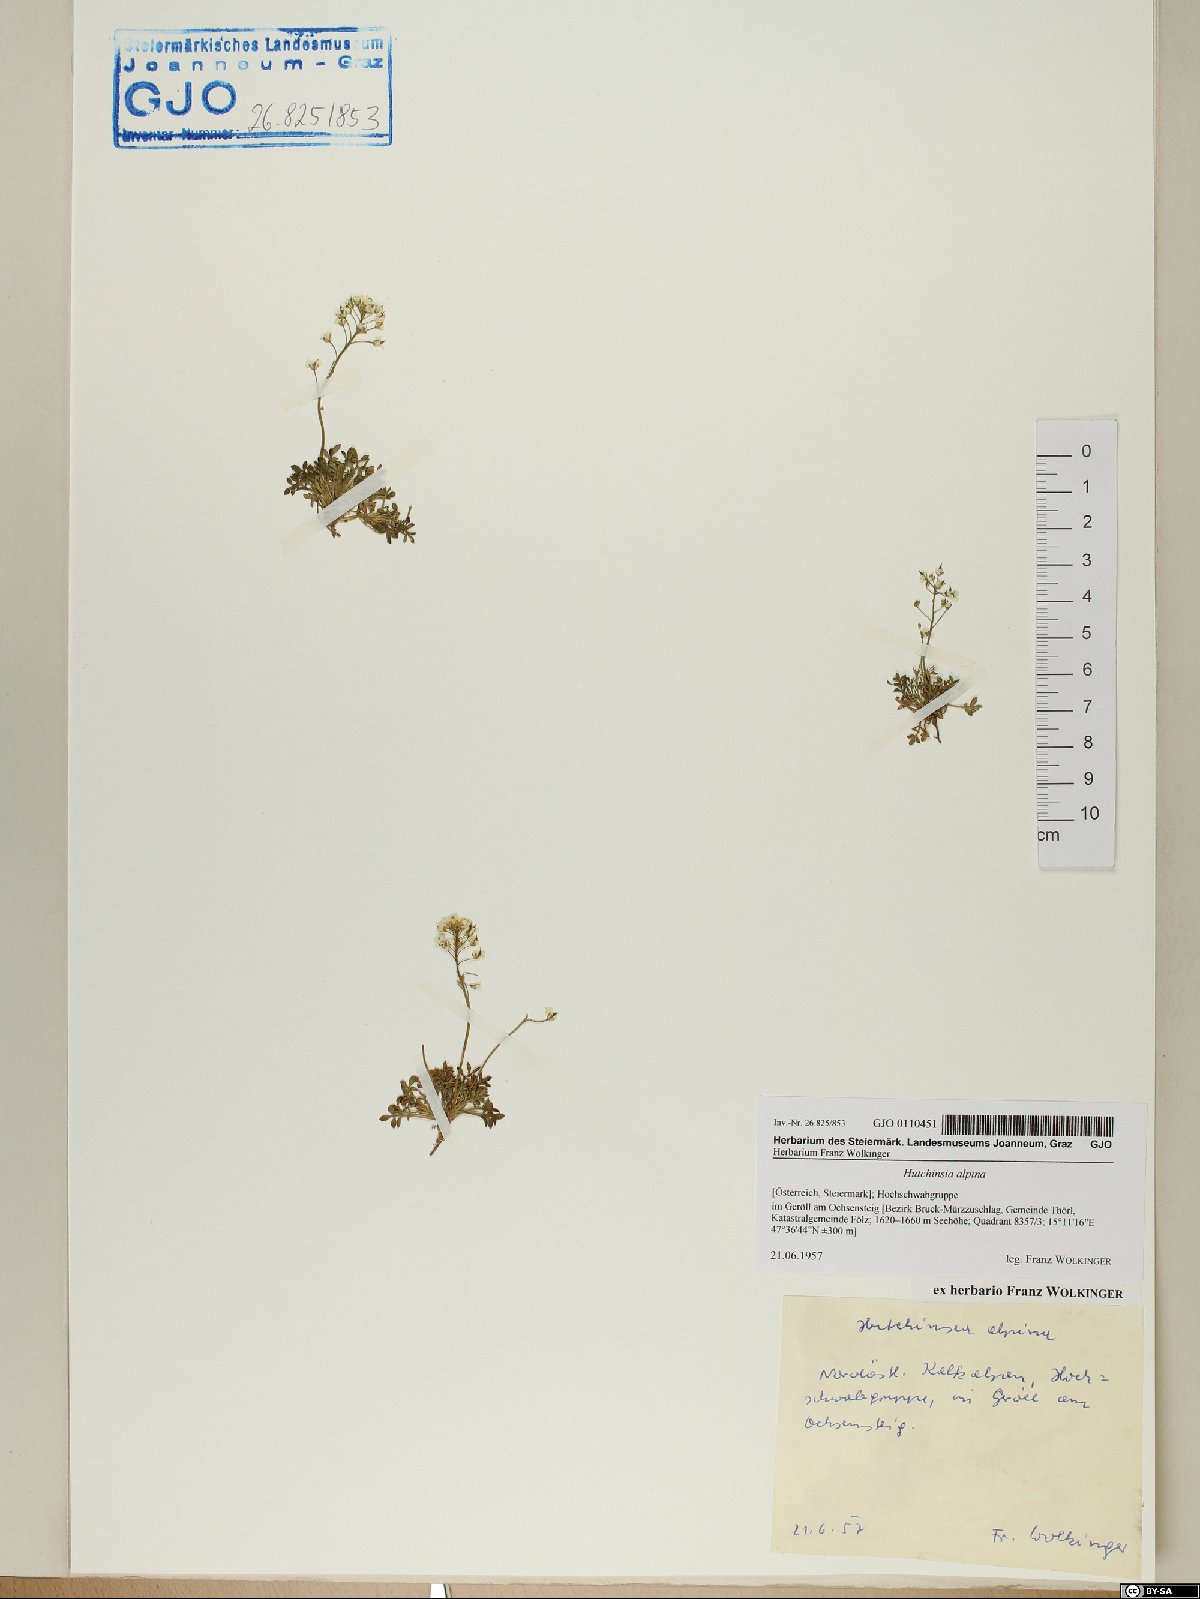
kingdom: Plantae
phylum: Tracheophyta
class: Magnoliopsida
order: Brassicales
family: Brassicaceae
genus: Hornungia
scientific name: Hornungia alpina
